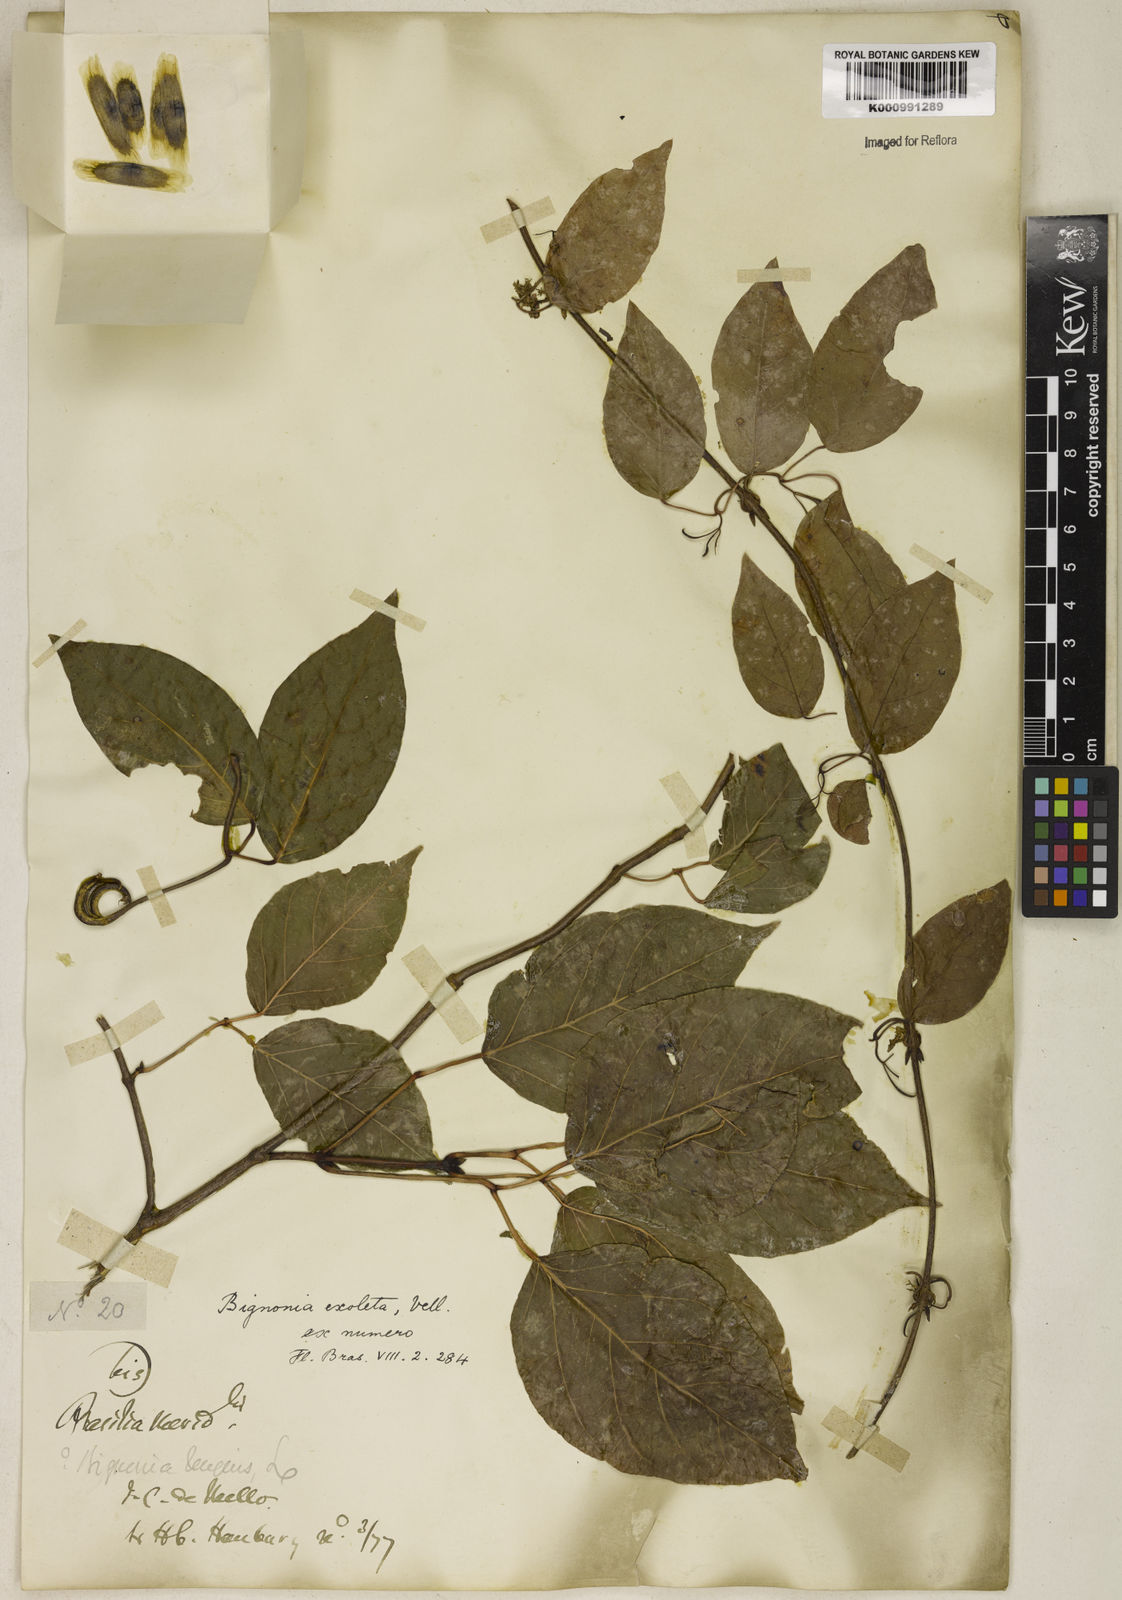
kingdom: Plantae
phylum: Tracheophyta
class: Magnoliopsida
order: Lamiales
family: Bignoniaceae
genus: Dolichandra
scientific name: Dolichandra unguis-cati
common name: Catclaw vine
